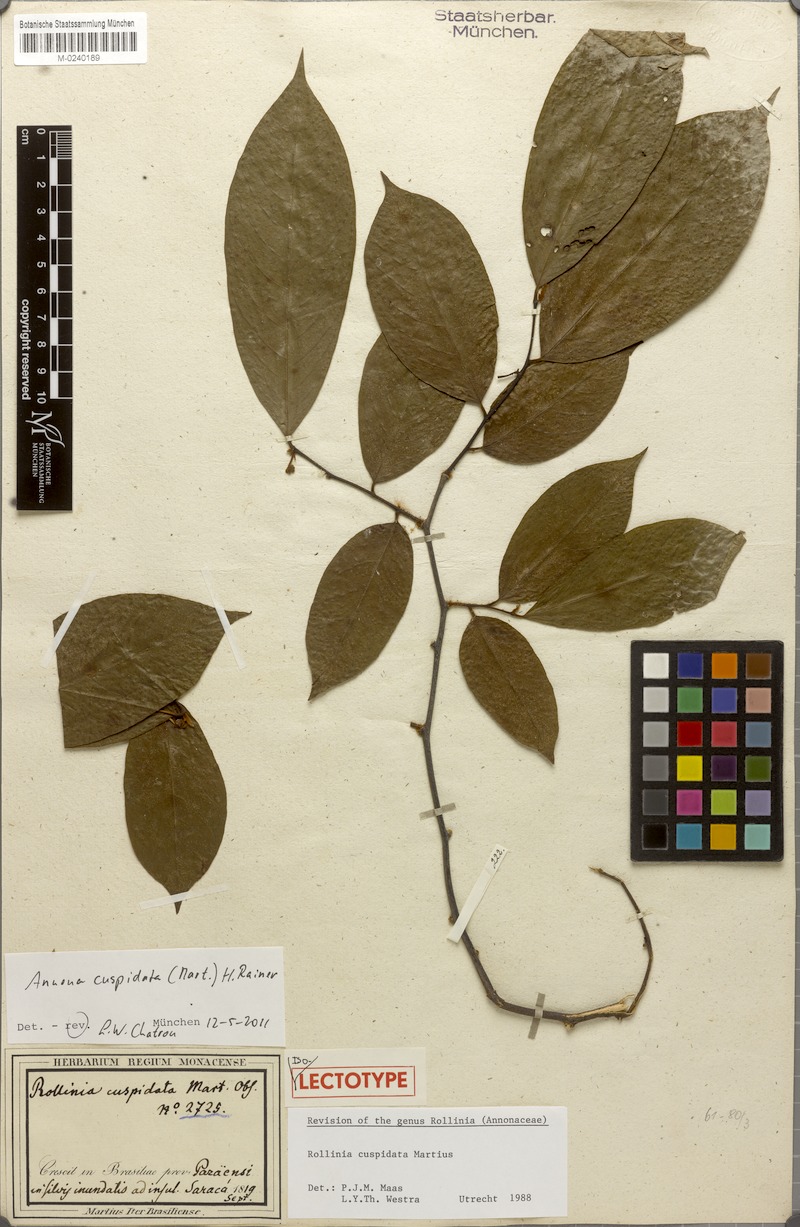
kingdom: Plantae
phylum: Tracheophyta
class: Magnoliopsida
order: Magnoliales
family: Annonaceae
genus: Annona
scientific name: Annona cuspidata
